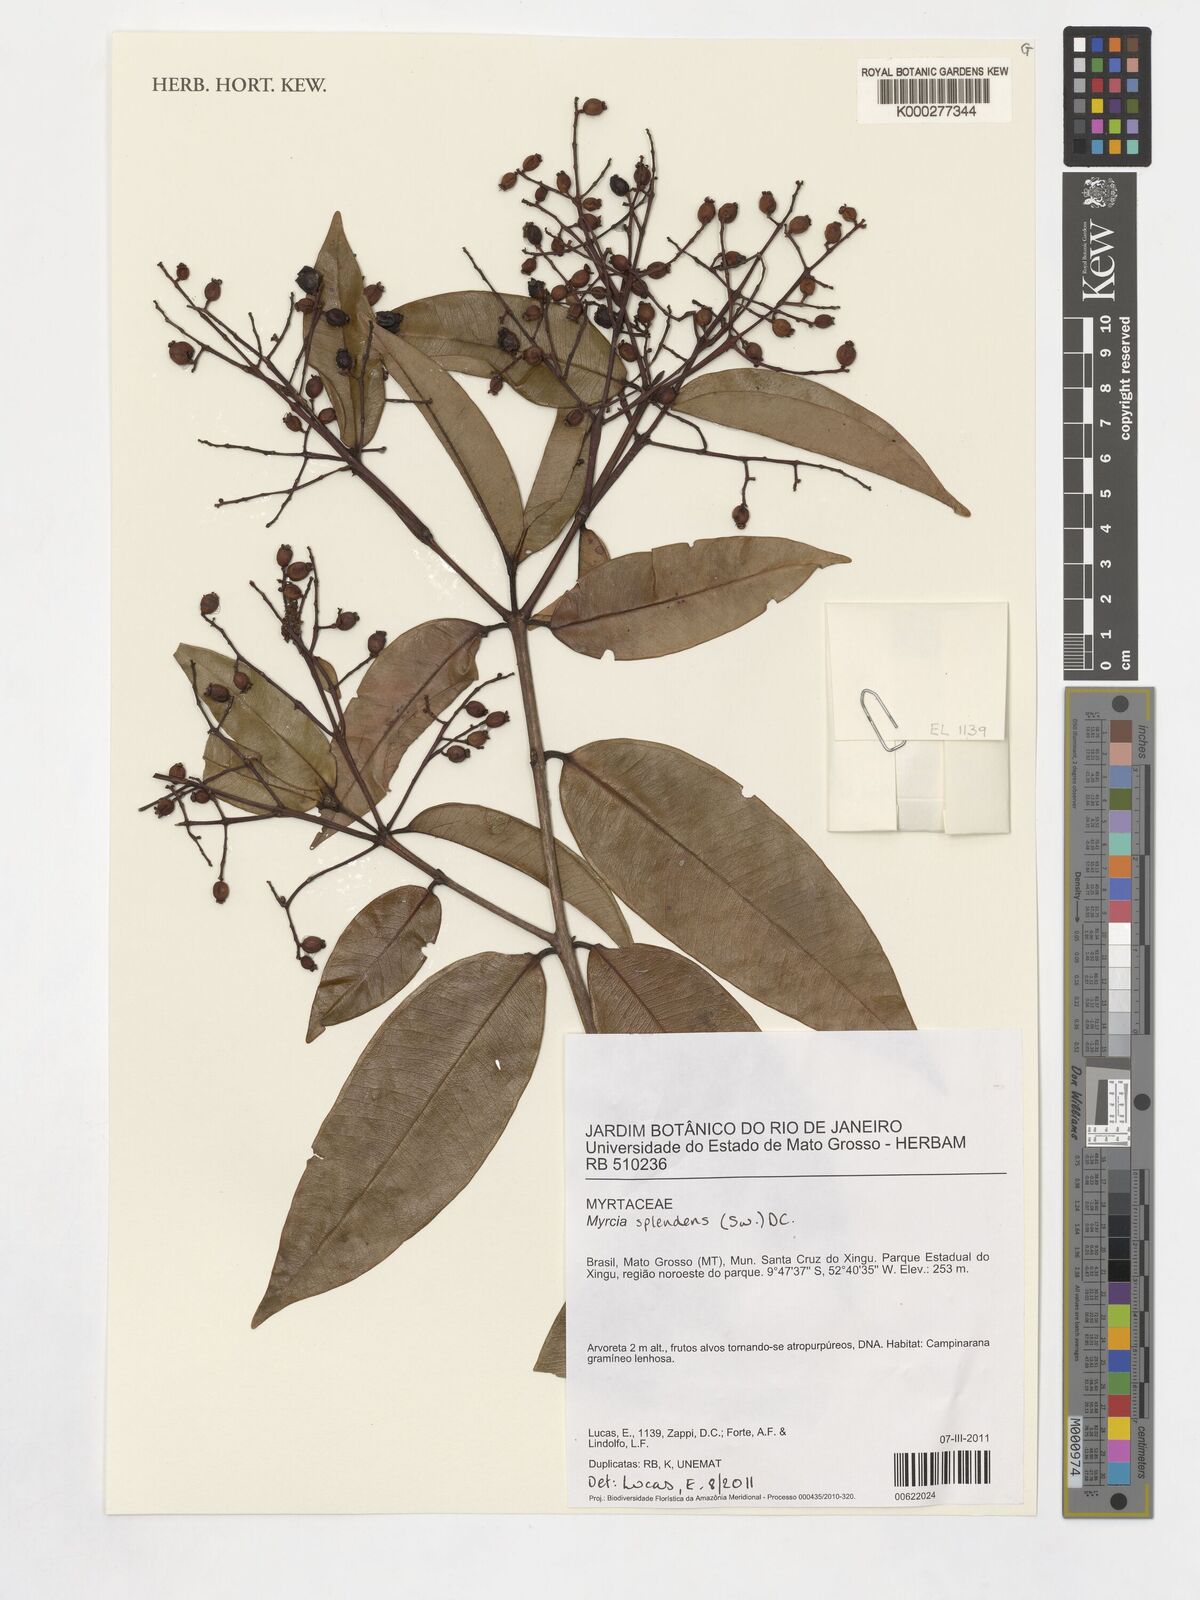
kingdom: Plantae
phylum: Tracheophyta
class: Magnoliopsida
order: Myrtales
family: Myrtaceae
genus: Myrcia
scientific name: Myrcia splendens
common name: Surinam cherry
